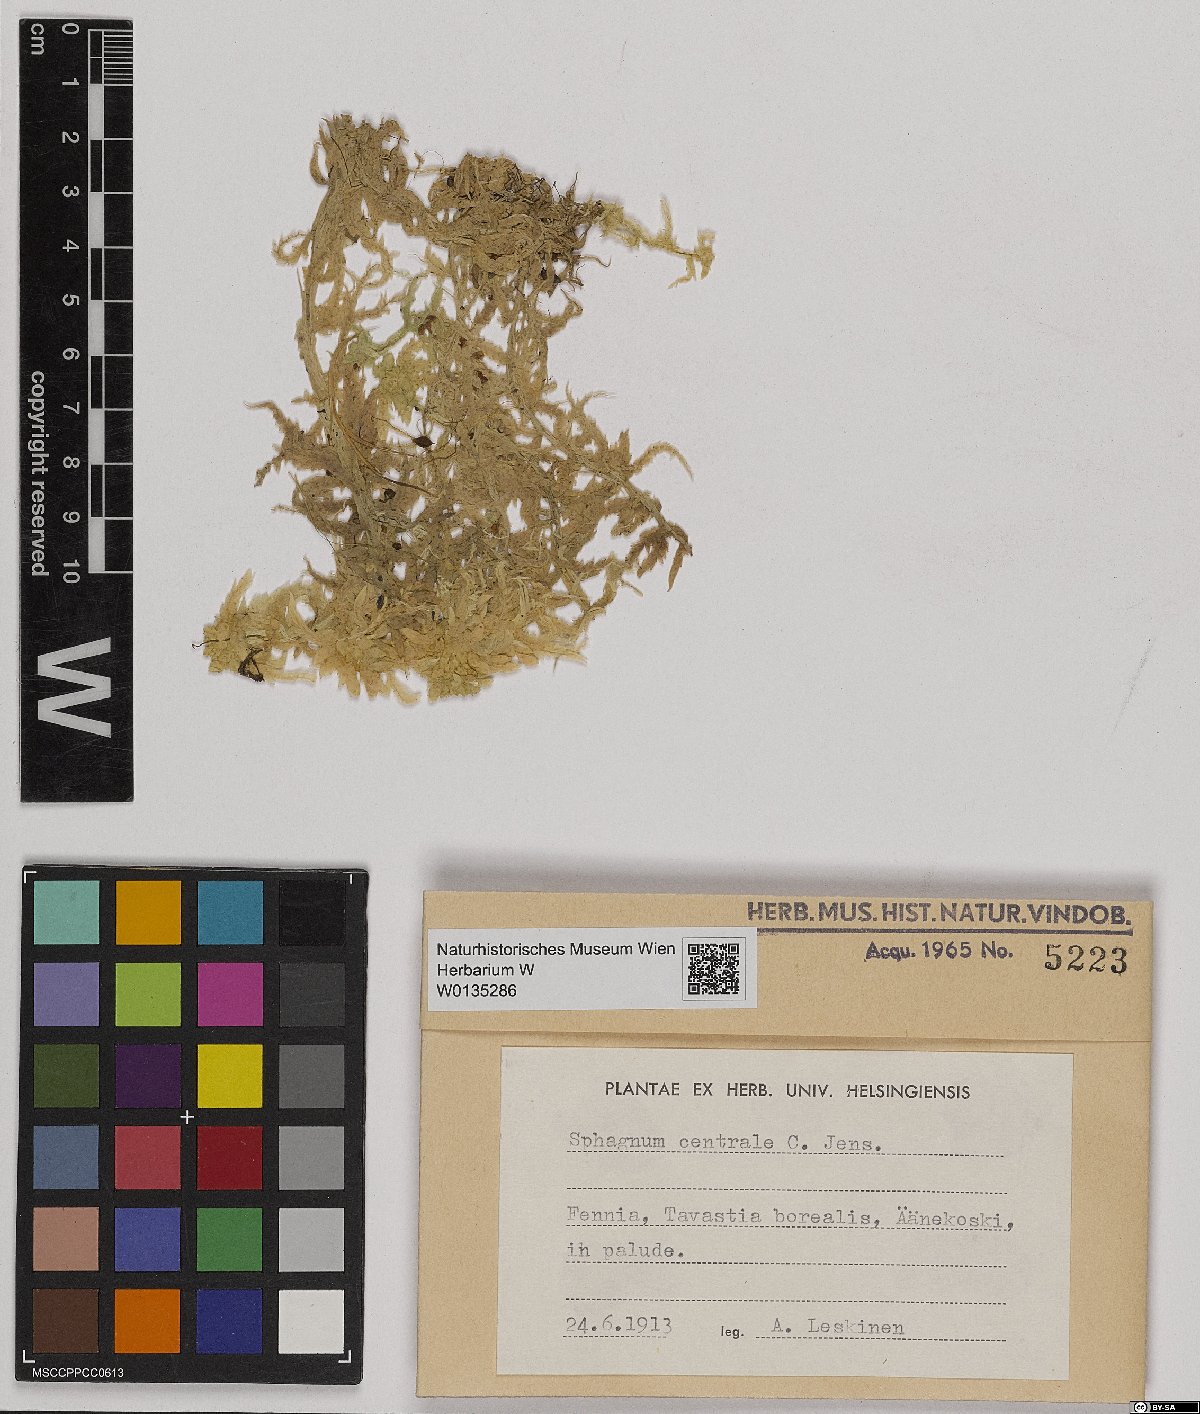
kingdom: Plantae
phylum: Bryophyta
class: Sphagnopsida
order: Sphagnales
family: Sphagnaceae
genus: Sphagnum
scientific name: Sphagnum centrale
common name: Central peat moss
